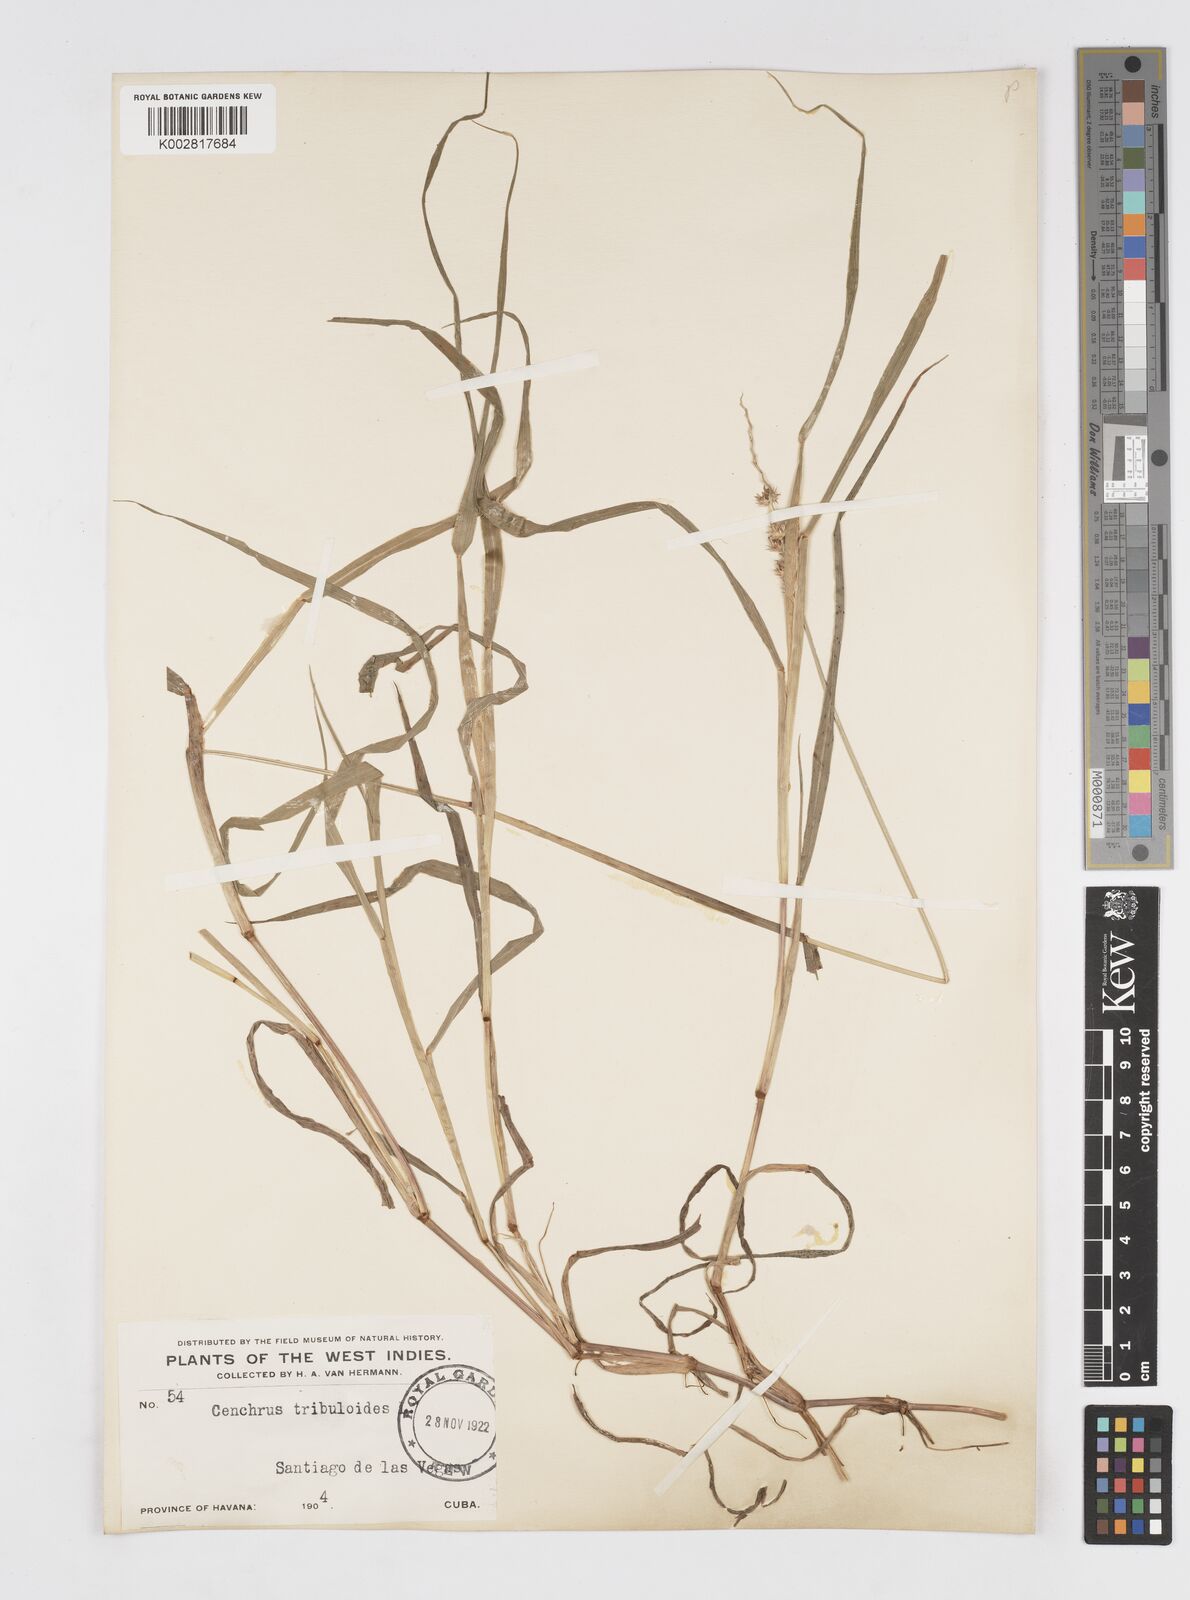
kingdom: Plantae
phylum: Tracheophyta
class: Liliopsida
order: Poales
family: Poaceae
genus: Cenchrus
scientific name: Cenchrus
